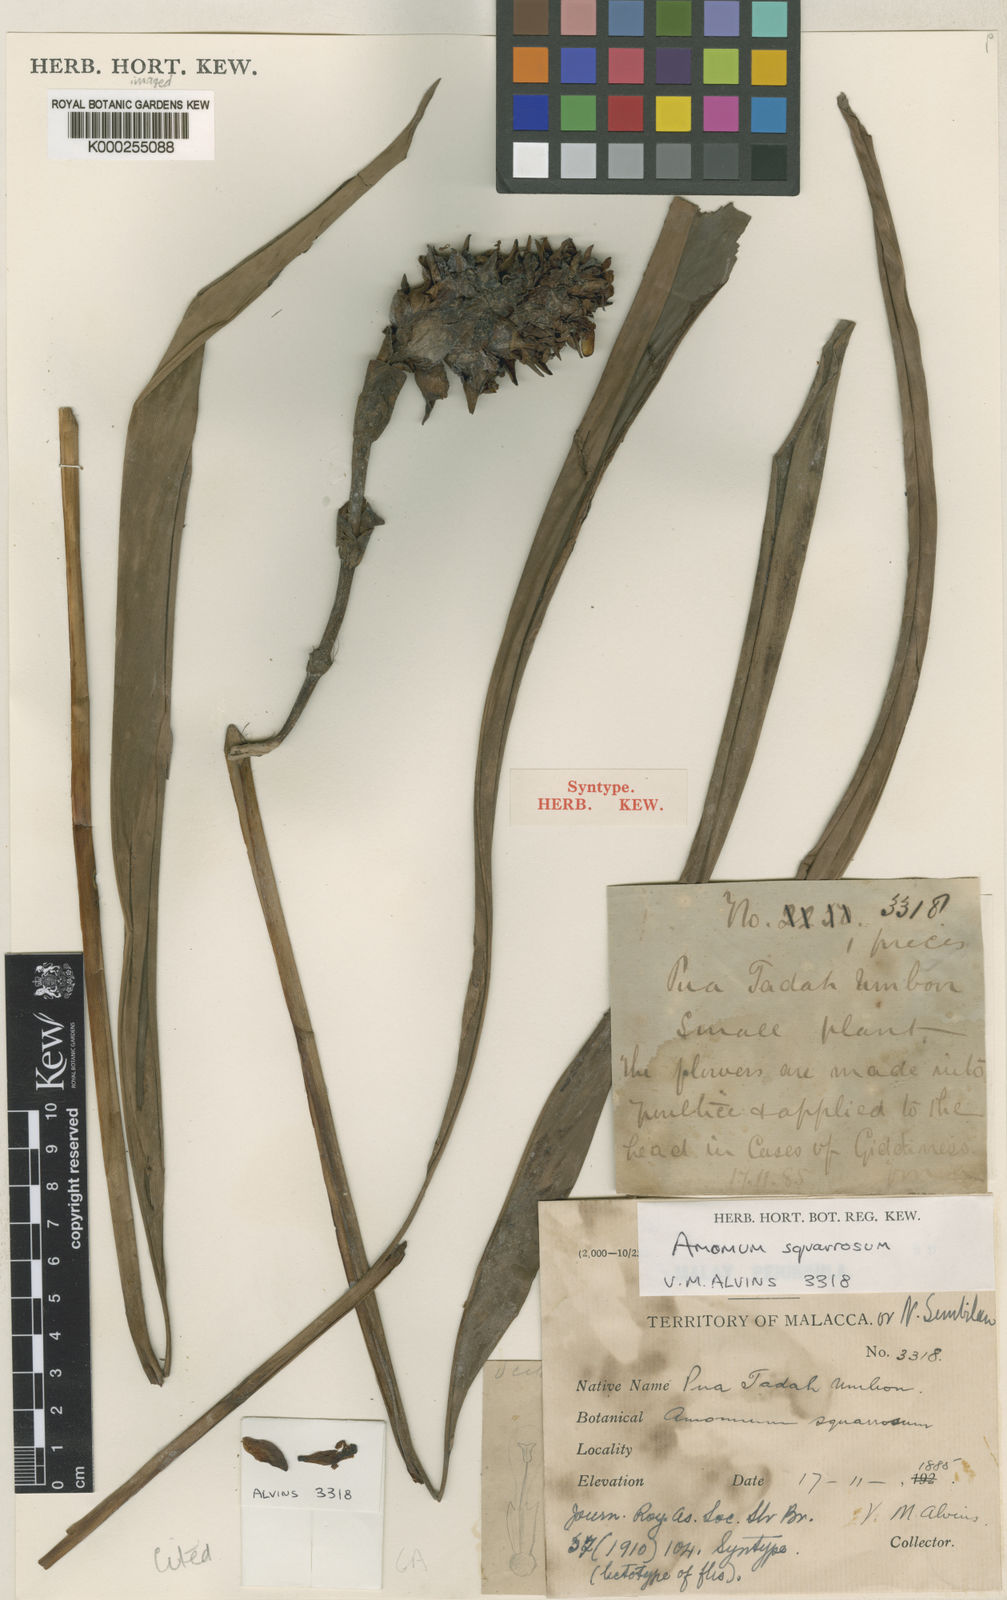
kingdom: Plantae
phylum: Tracheophyta
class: Liliopsida
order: Zingiberales
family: Zingiberaceae
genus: Conamomum
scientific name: Conamomum squarrosum
